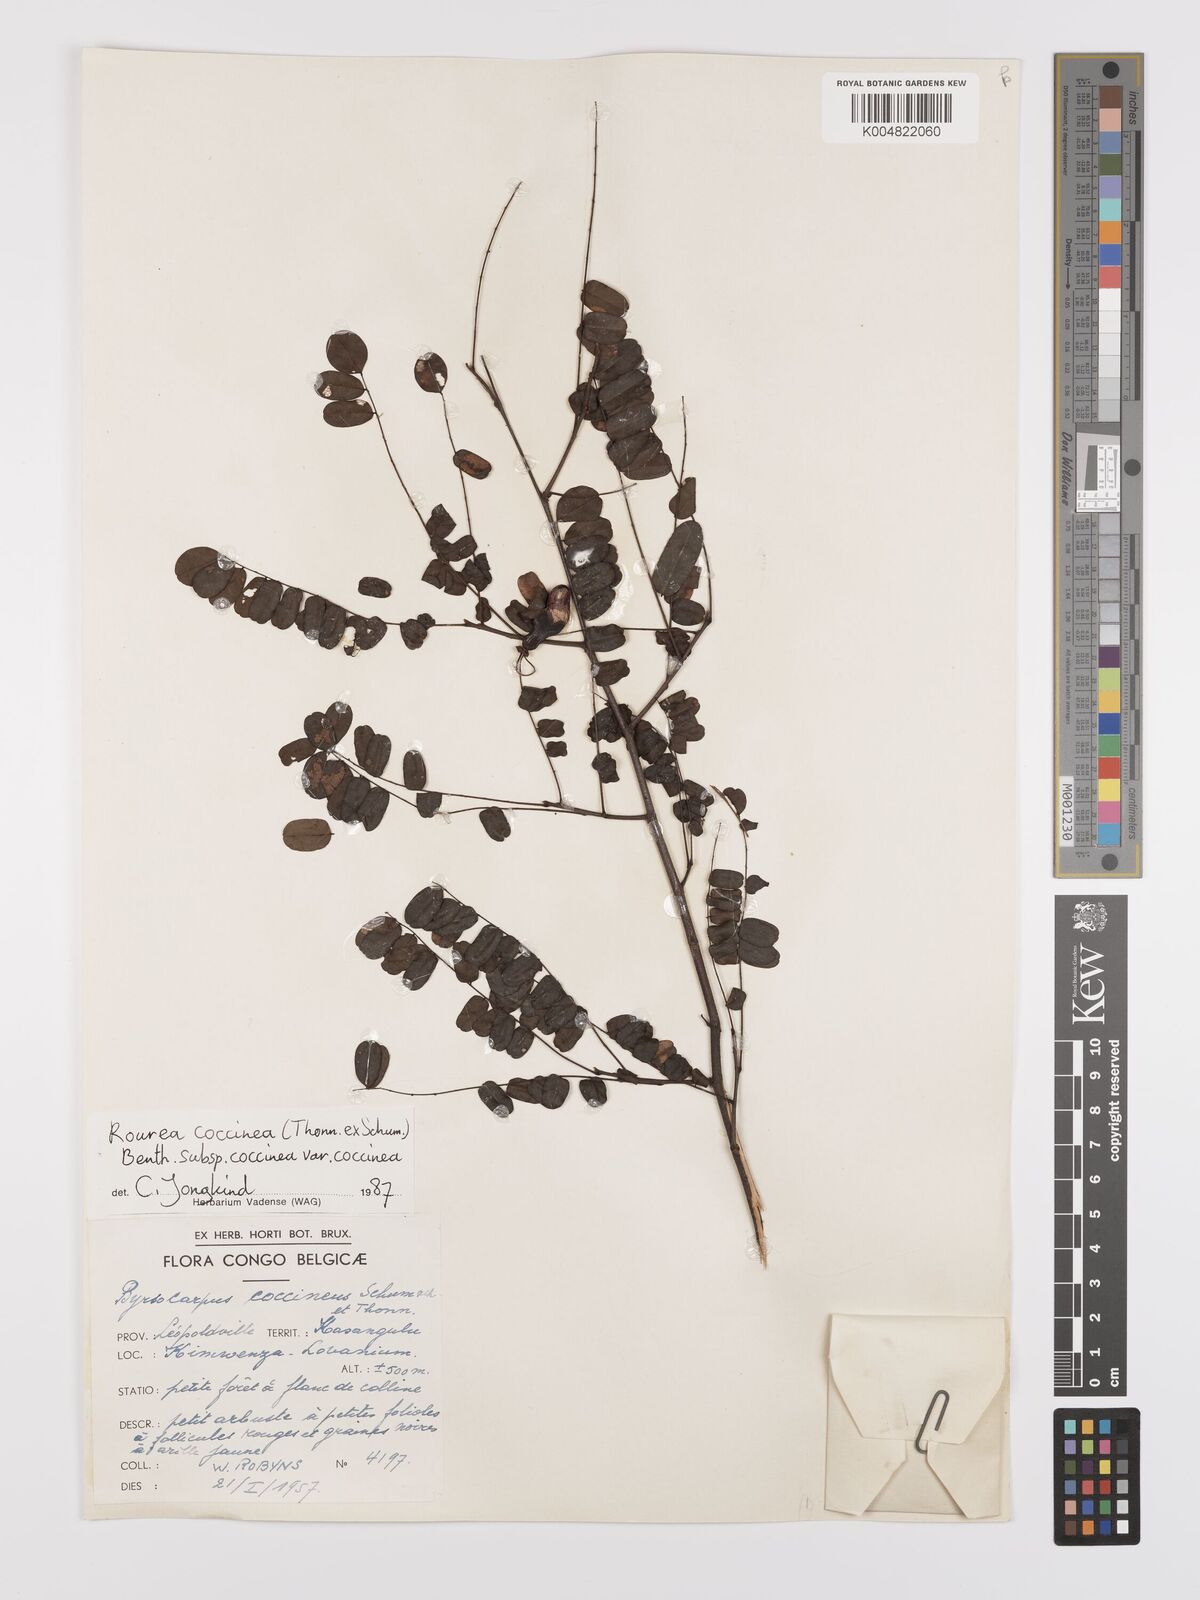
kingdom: Plantae
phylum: Tracheophyta
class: Magnoliopsida
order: Oxalidales
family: Connaraceae
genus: Rourea
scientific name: Rourea coccinea
